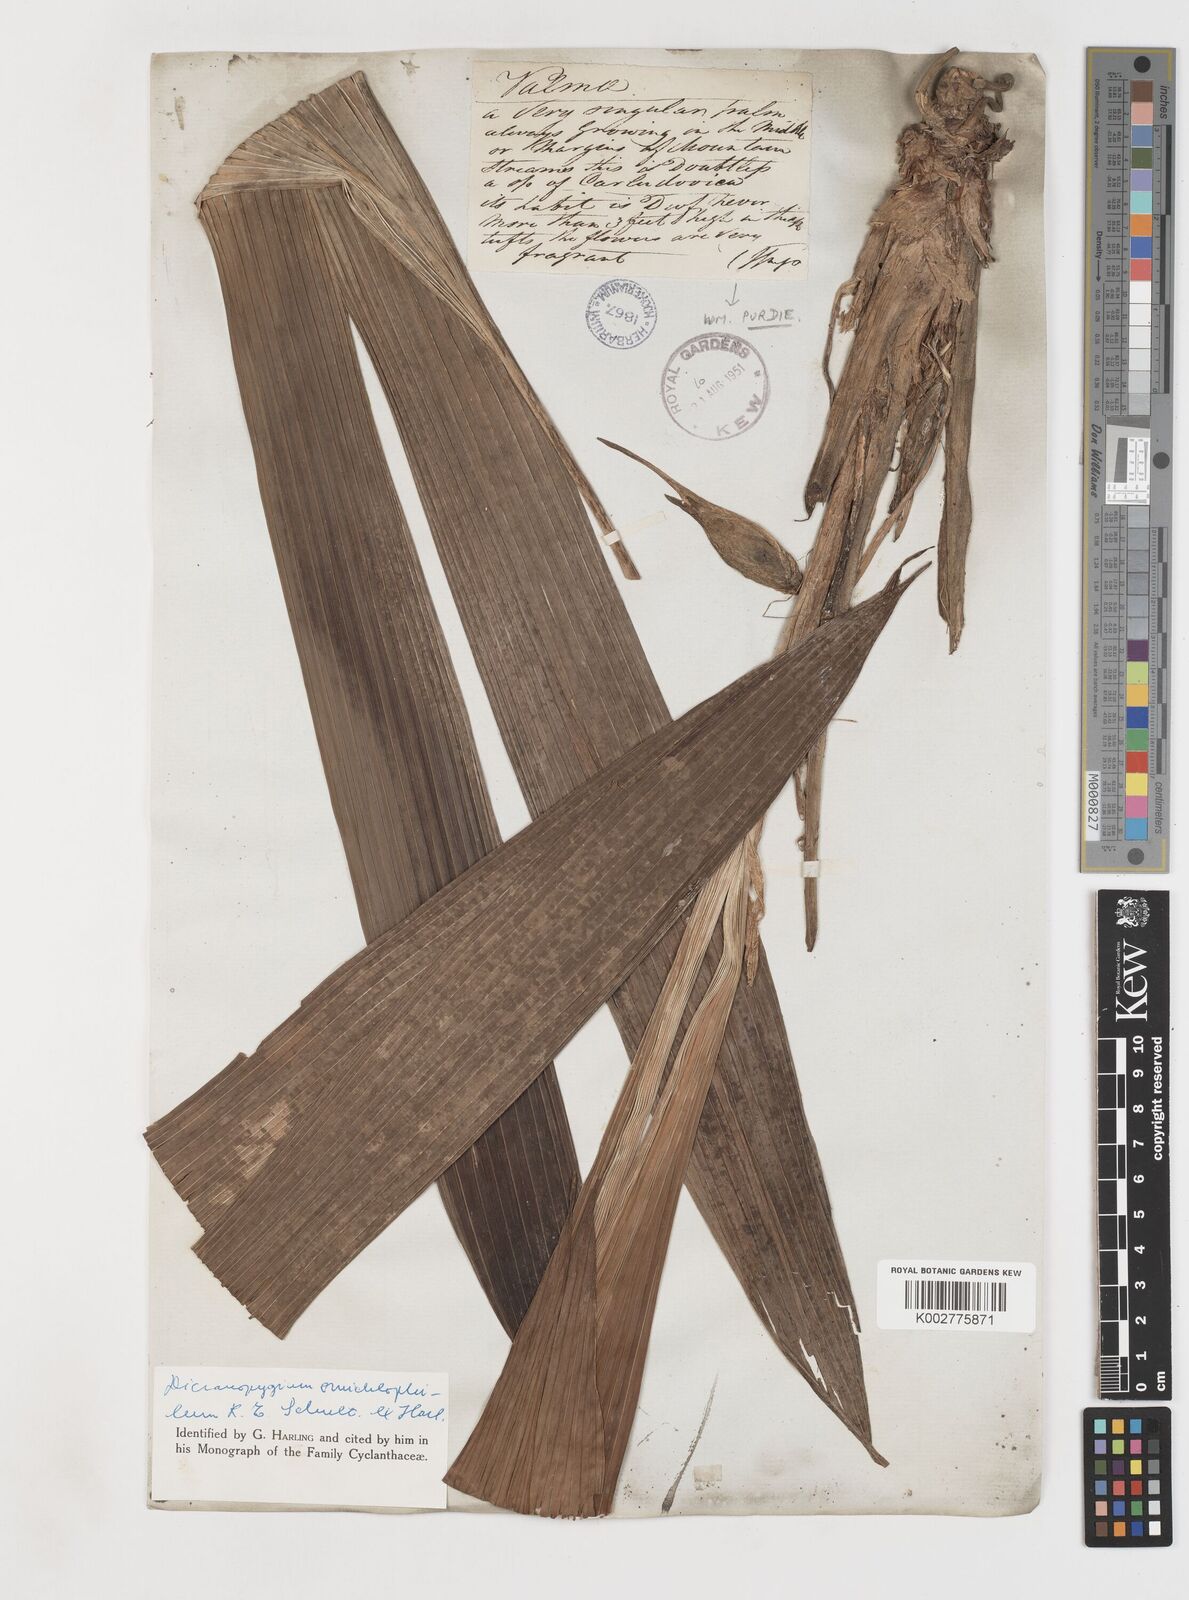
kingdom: Plantae
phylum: Tracheophyta
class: Liliopsida
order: Pandanales
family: Cyclanthaceae
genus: Dicranopygium
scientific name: Dicranopygium omichlophilum
